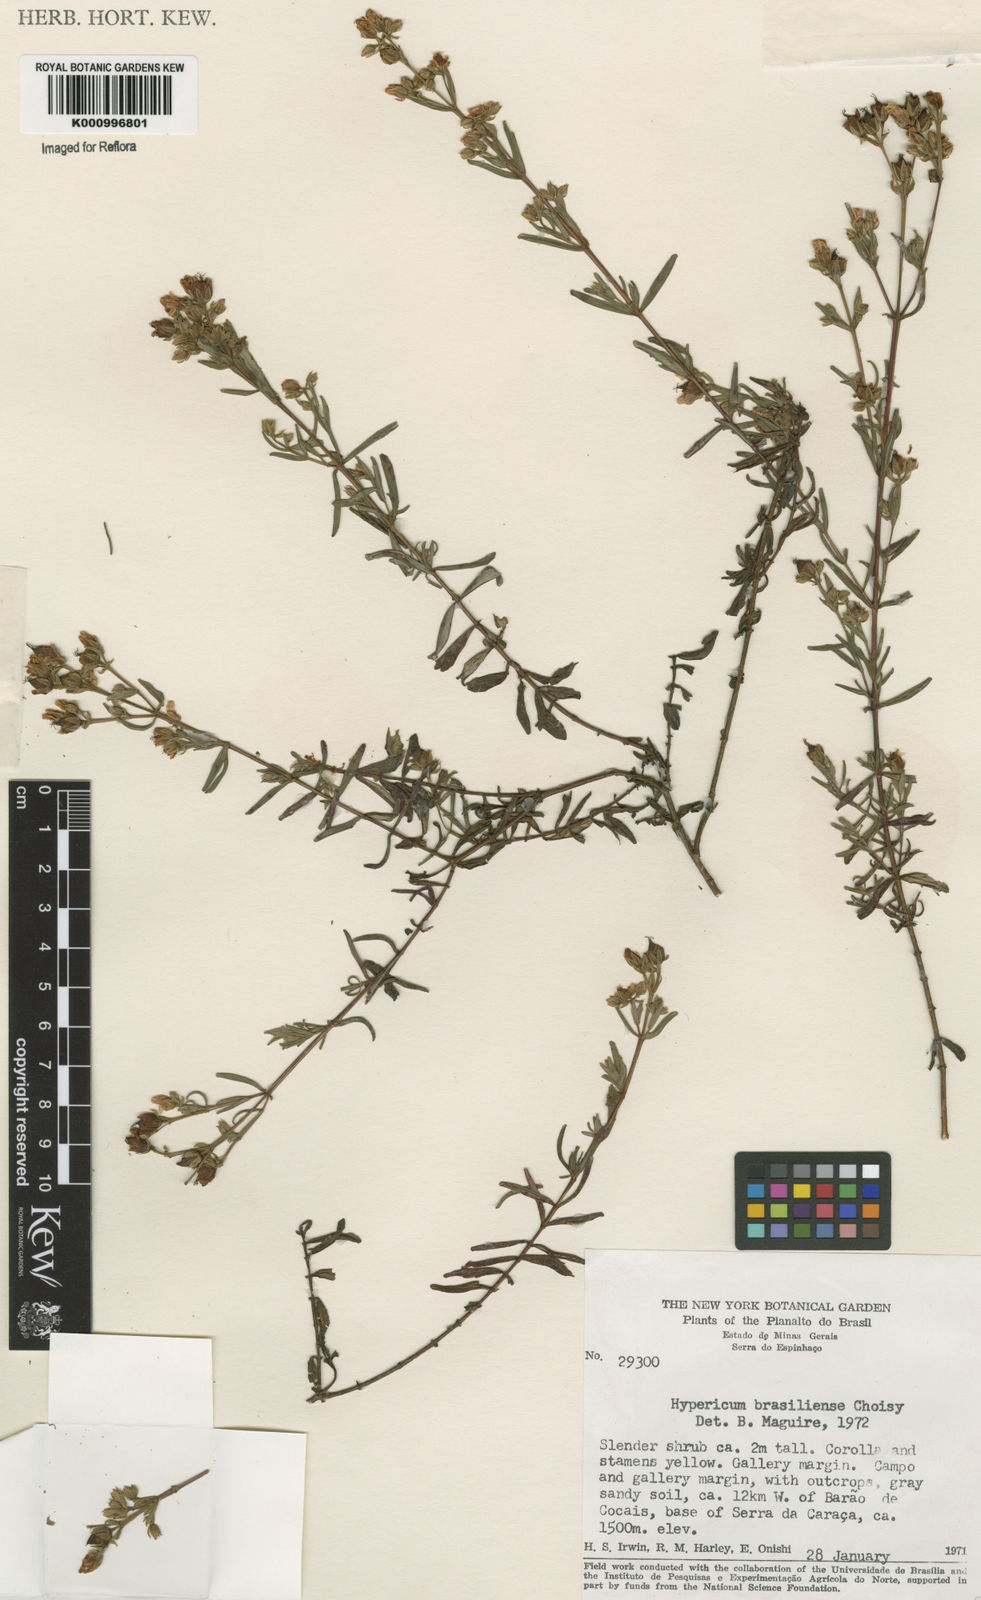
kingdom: Plantae
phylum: Tracheophyta
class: Magnoliopsida
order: Malpighiales
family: Hypericaceae
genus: Hypericum
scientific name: Hypericum brasiliense
